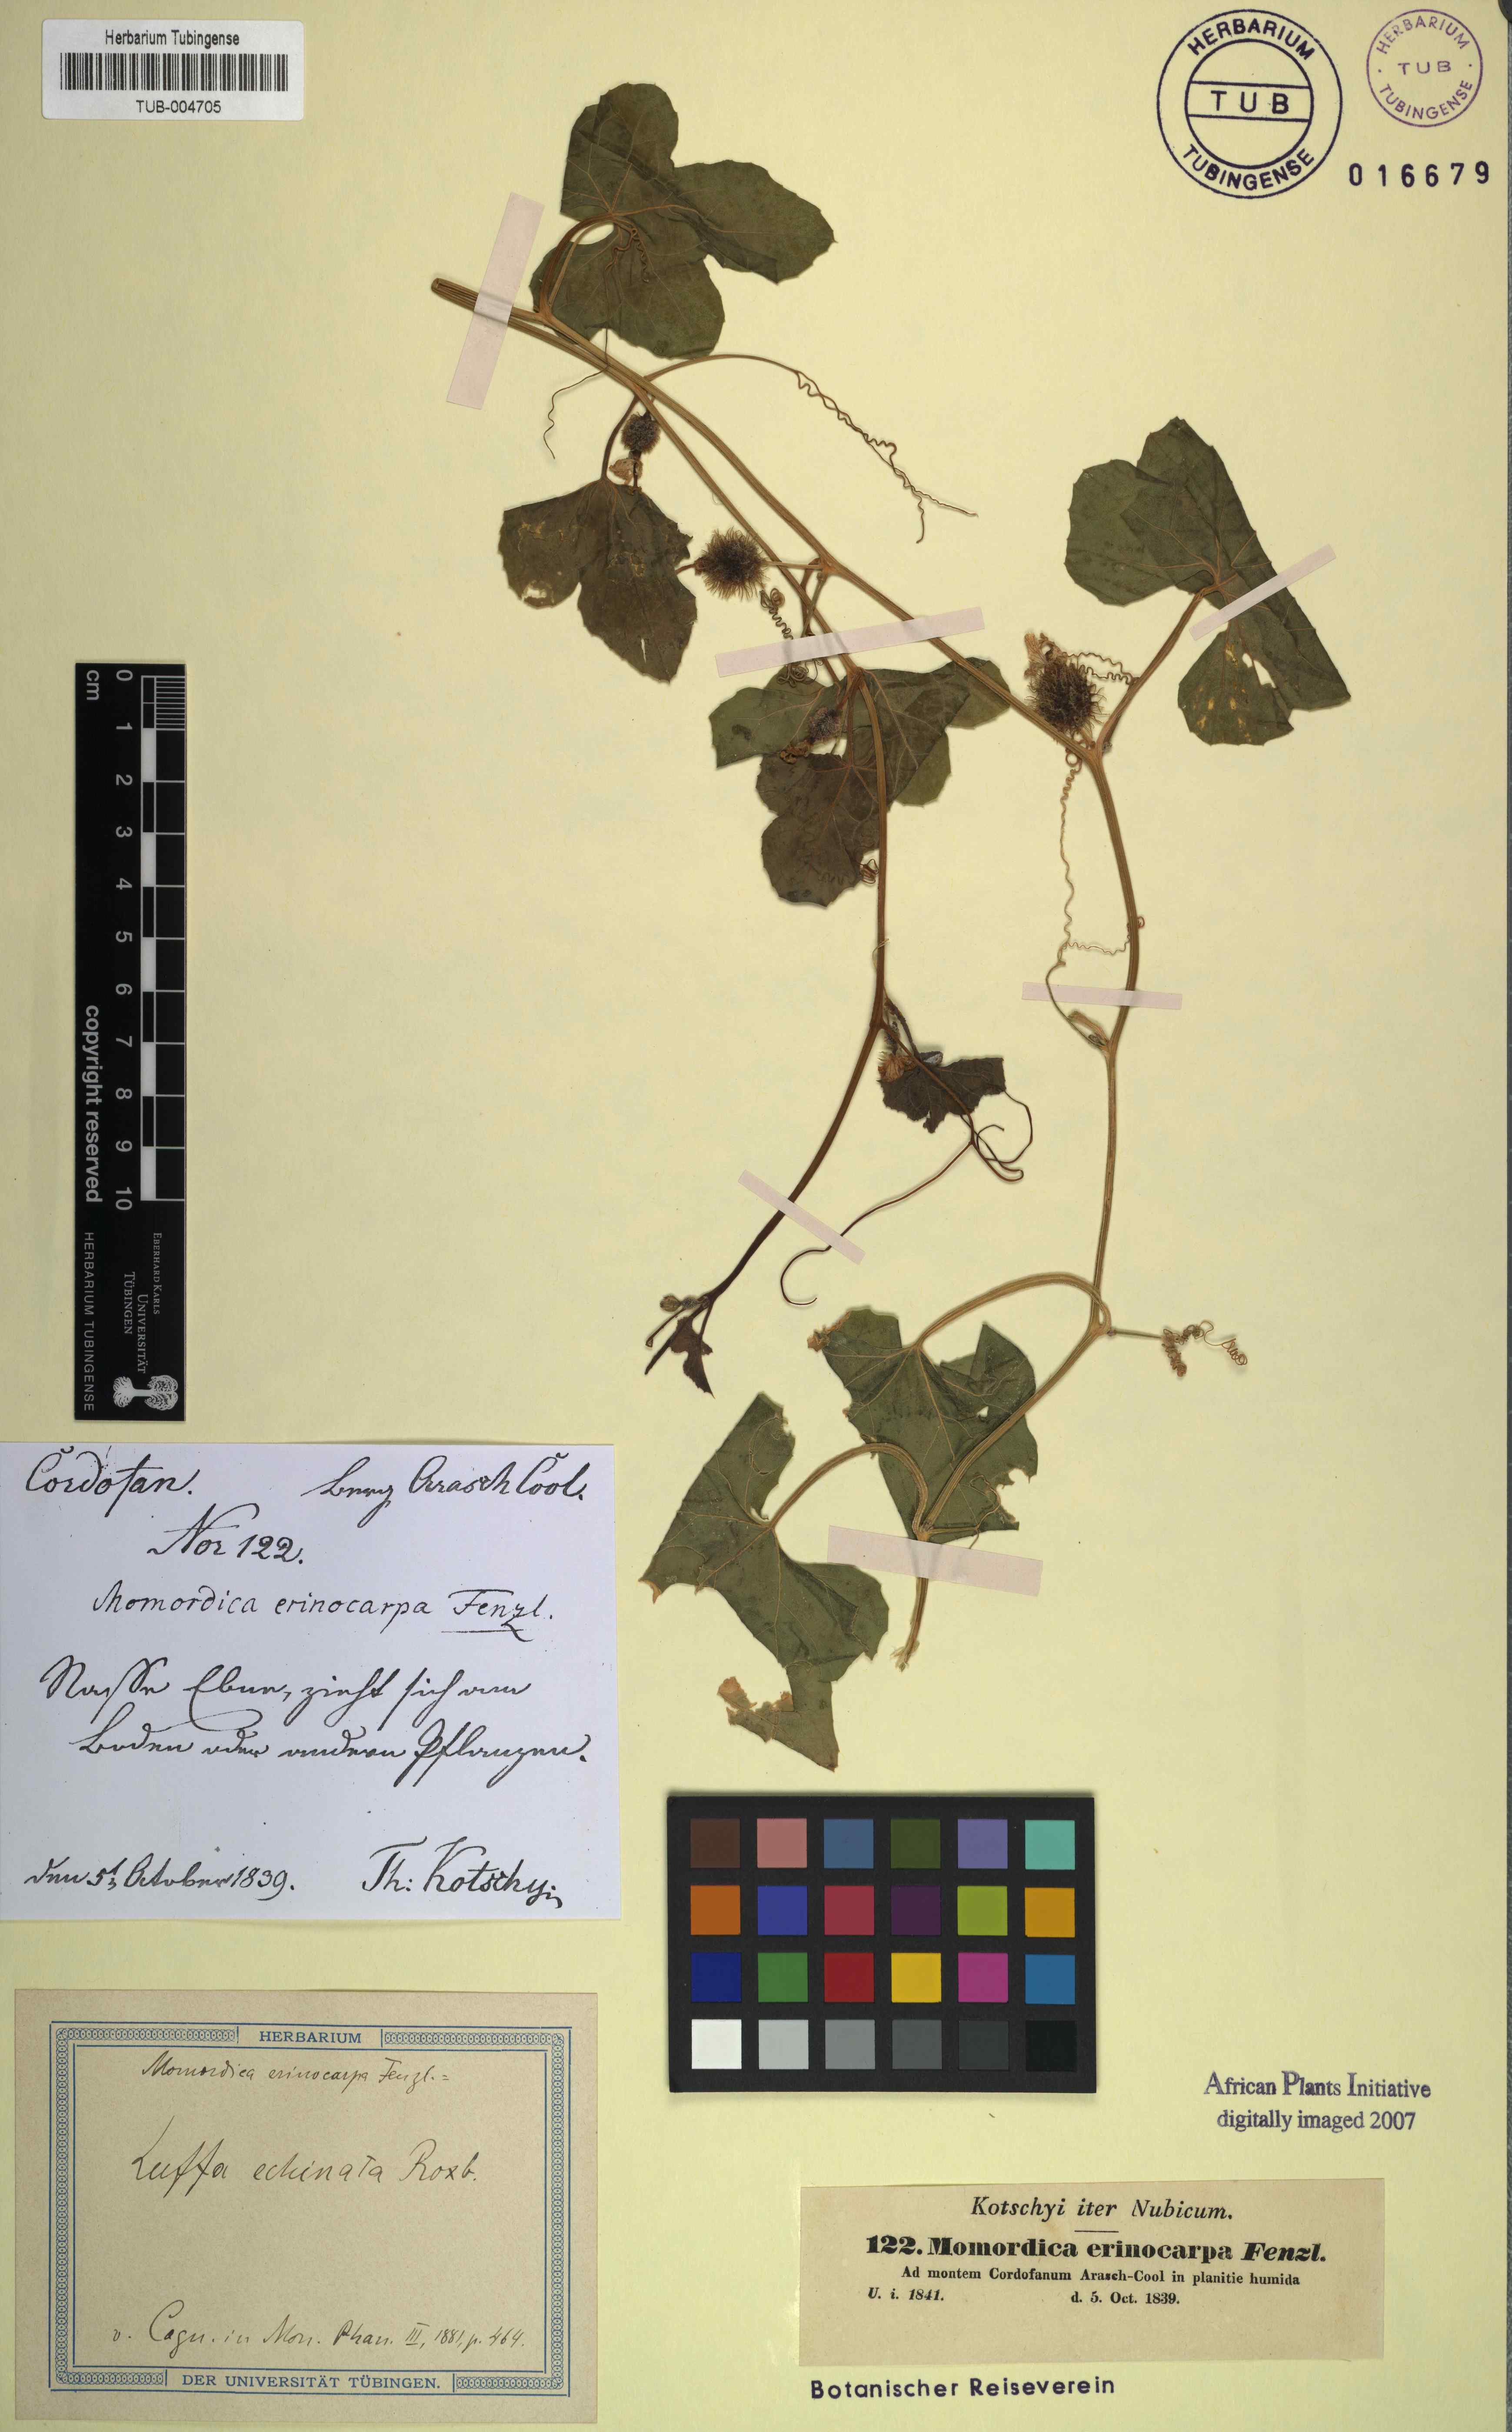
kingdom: Plantae
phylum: Tracheophyta
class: Magnoliopsida
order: Cucurbitales
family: Cucurbitaceae
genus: Luffa
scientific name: Luffa echinata
